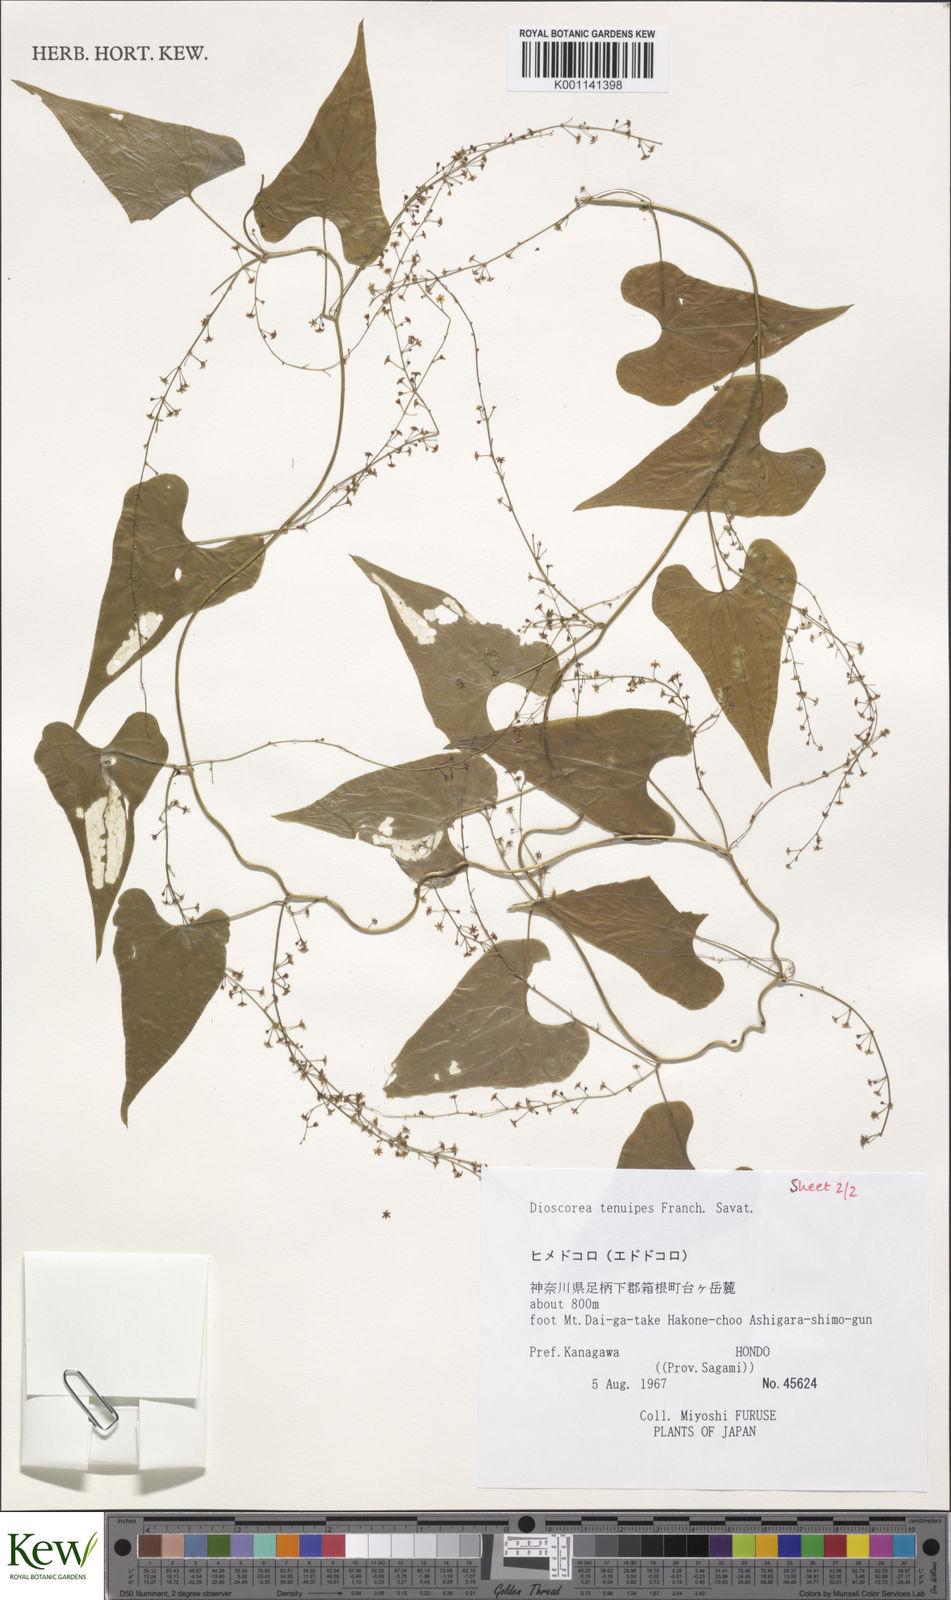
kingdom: Plantae
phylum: Tracheophyta
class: Liliopsida
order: Dioscoreales
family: Dioscoreaceae
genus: Dioscorea
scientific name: Dioscorea tenuipes
